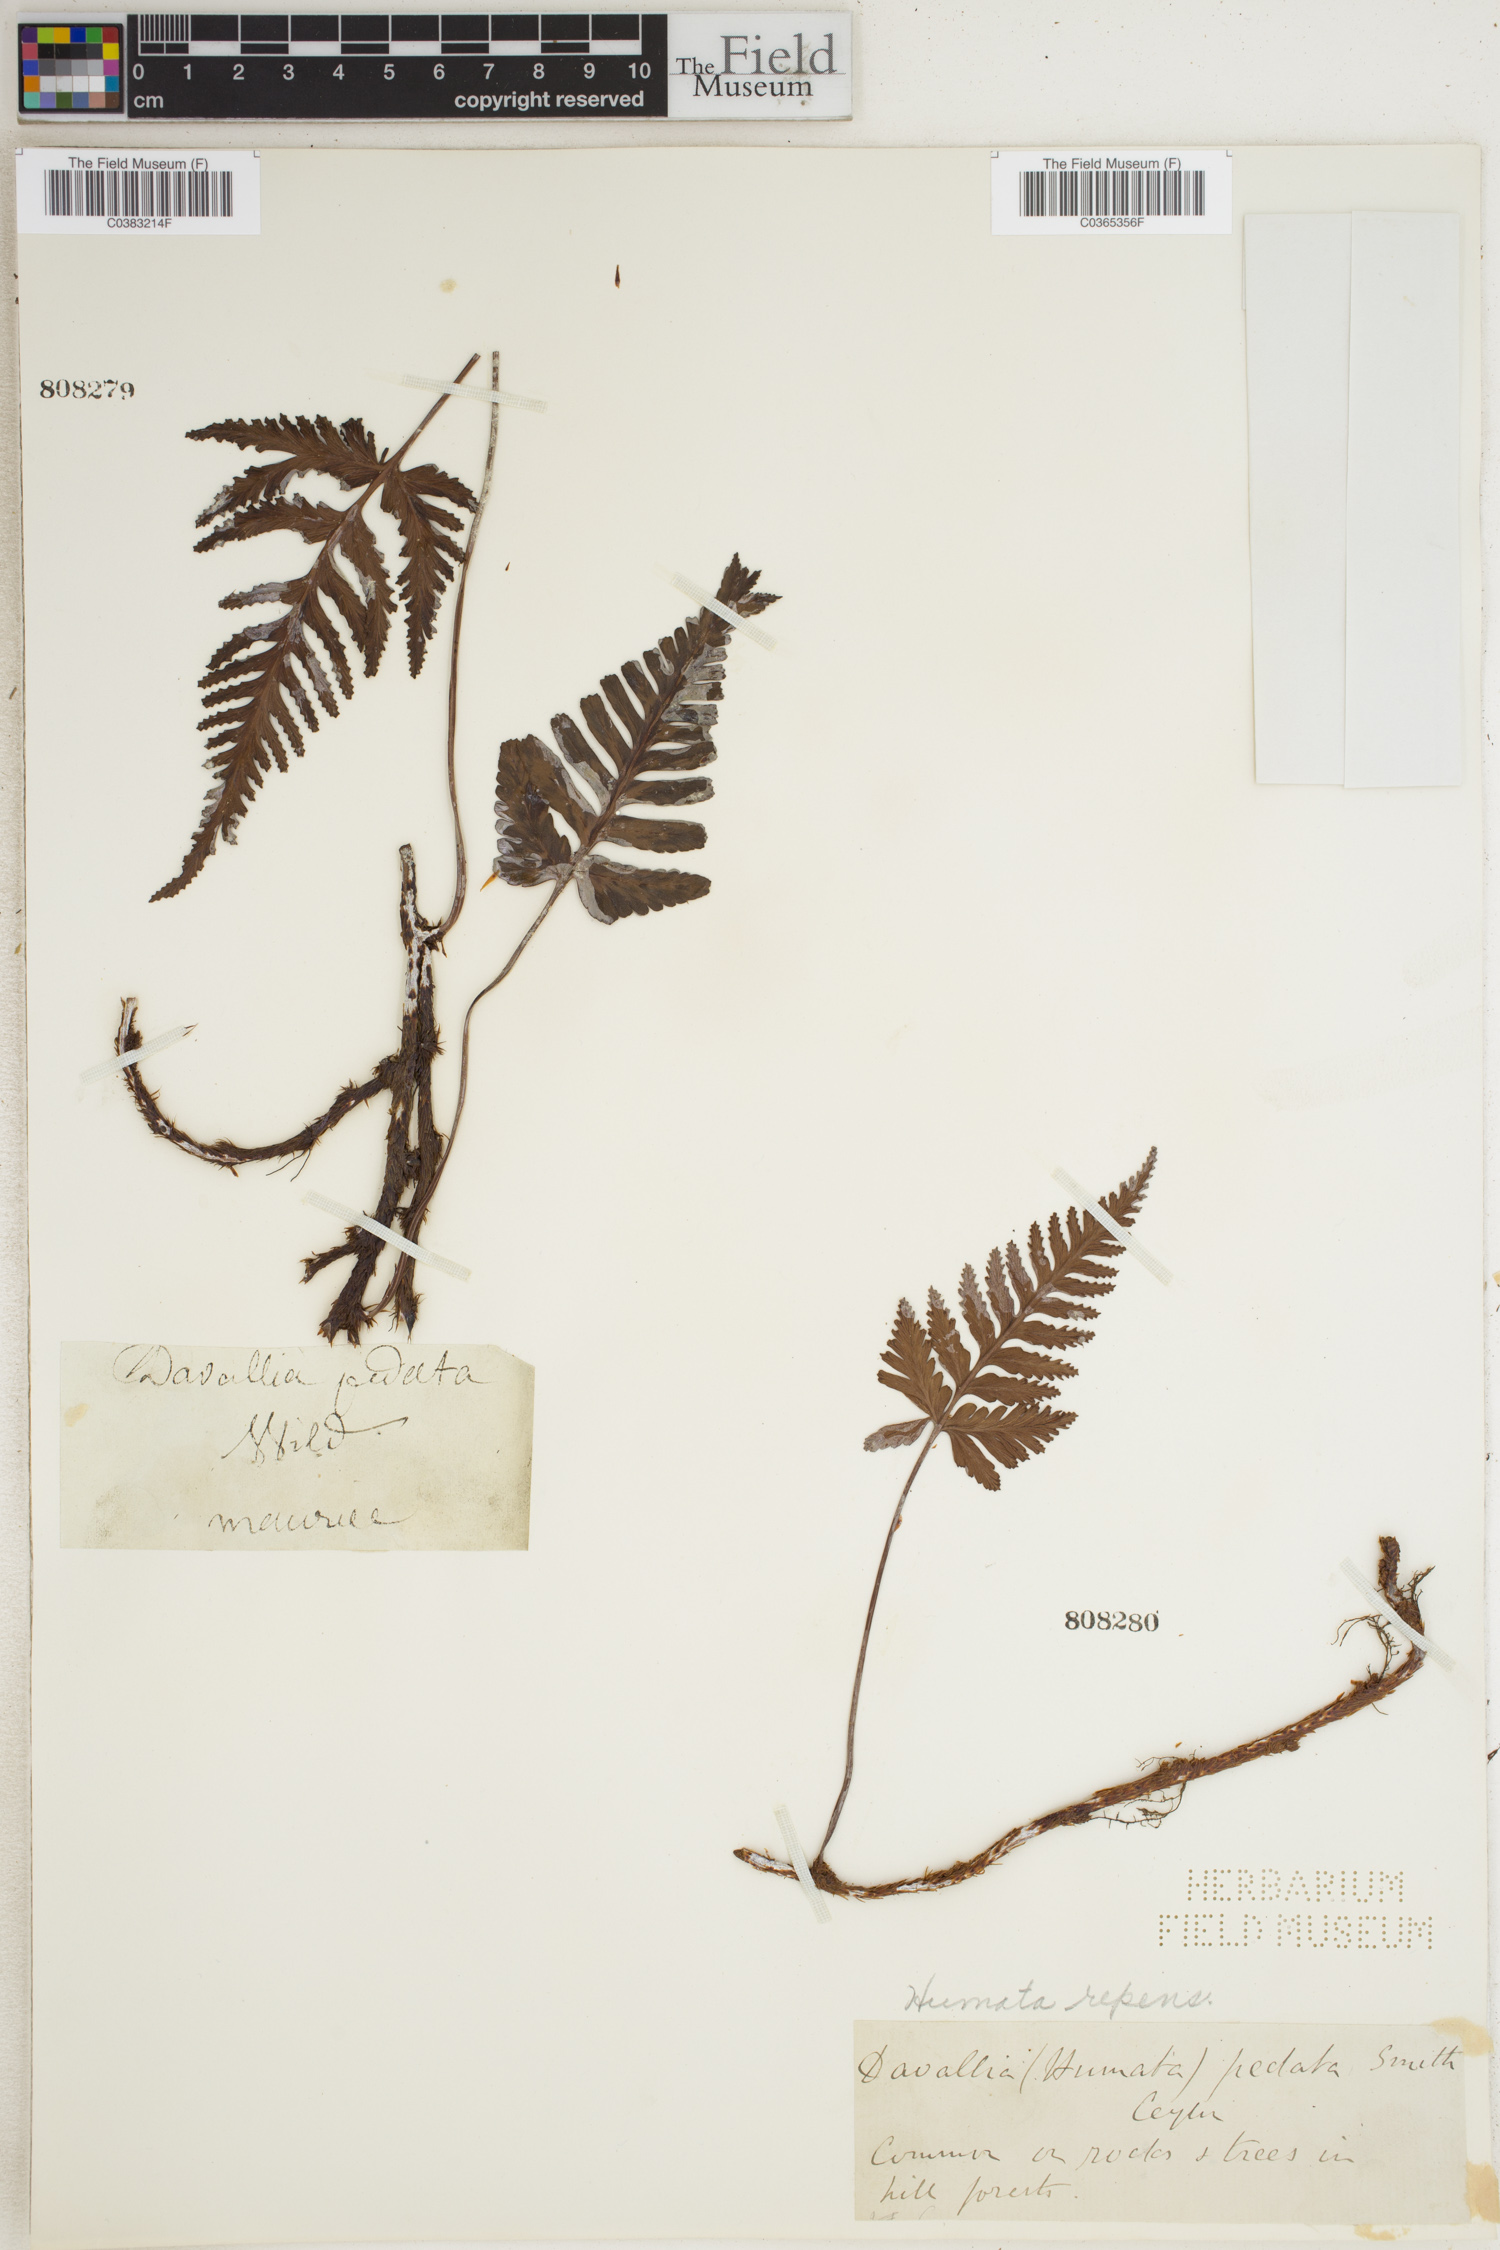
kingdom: Plantae
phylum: Tracheophyta
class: Polypodiopsida
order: Polypodiales
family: Davalliaceae
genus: Davallia
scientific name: Davallia repens
